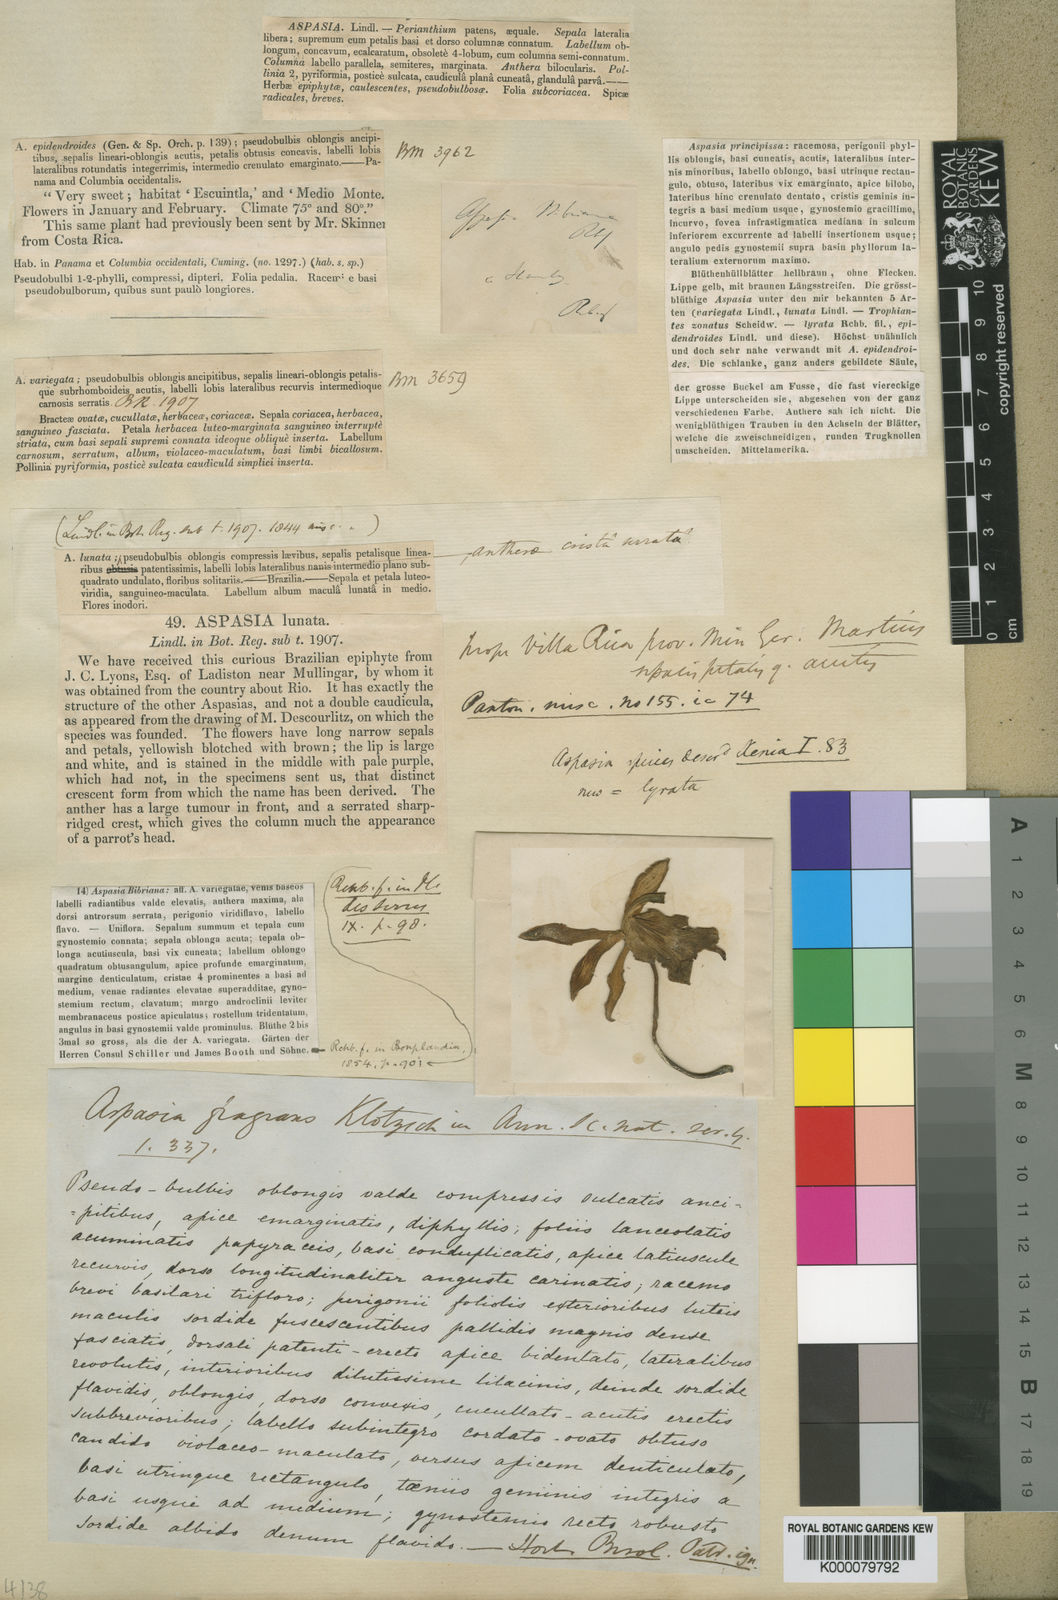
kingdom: Plantae
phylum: Tracheophyta
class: Liliopsida
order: Asparagales
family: Orchidaceae
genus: Aspasia
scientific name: Aspasia lunata
